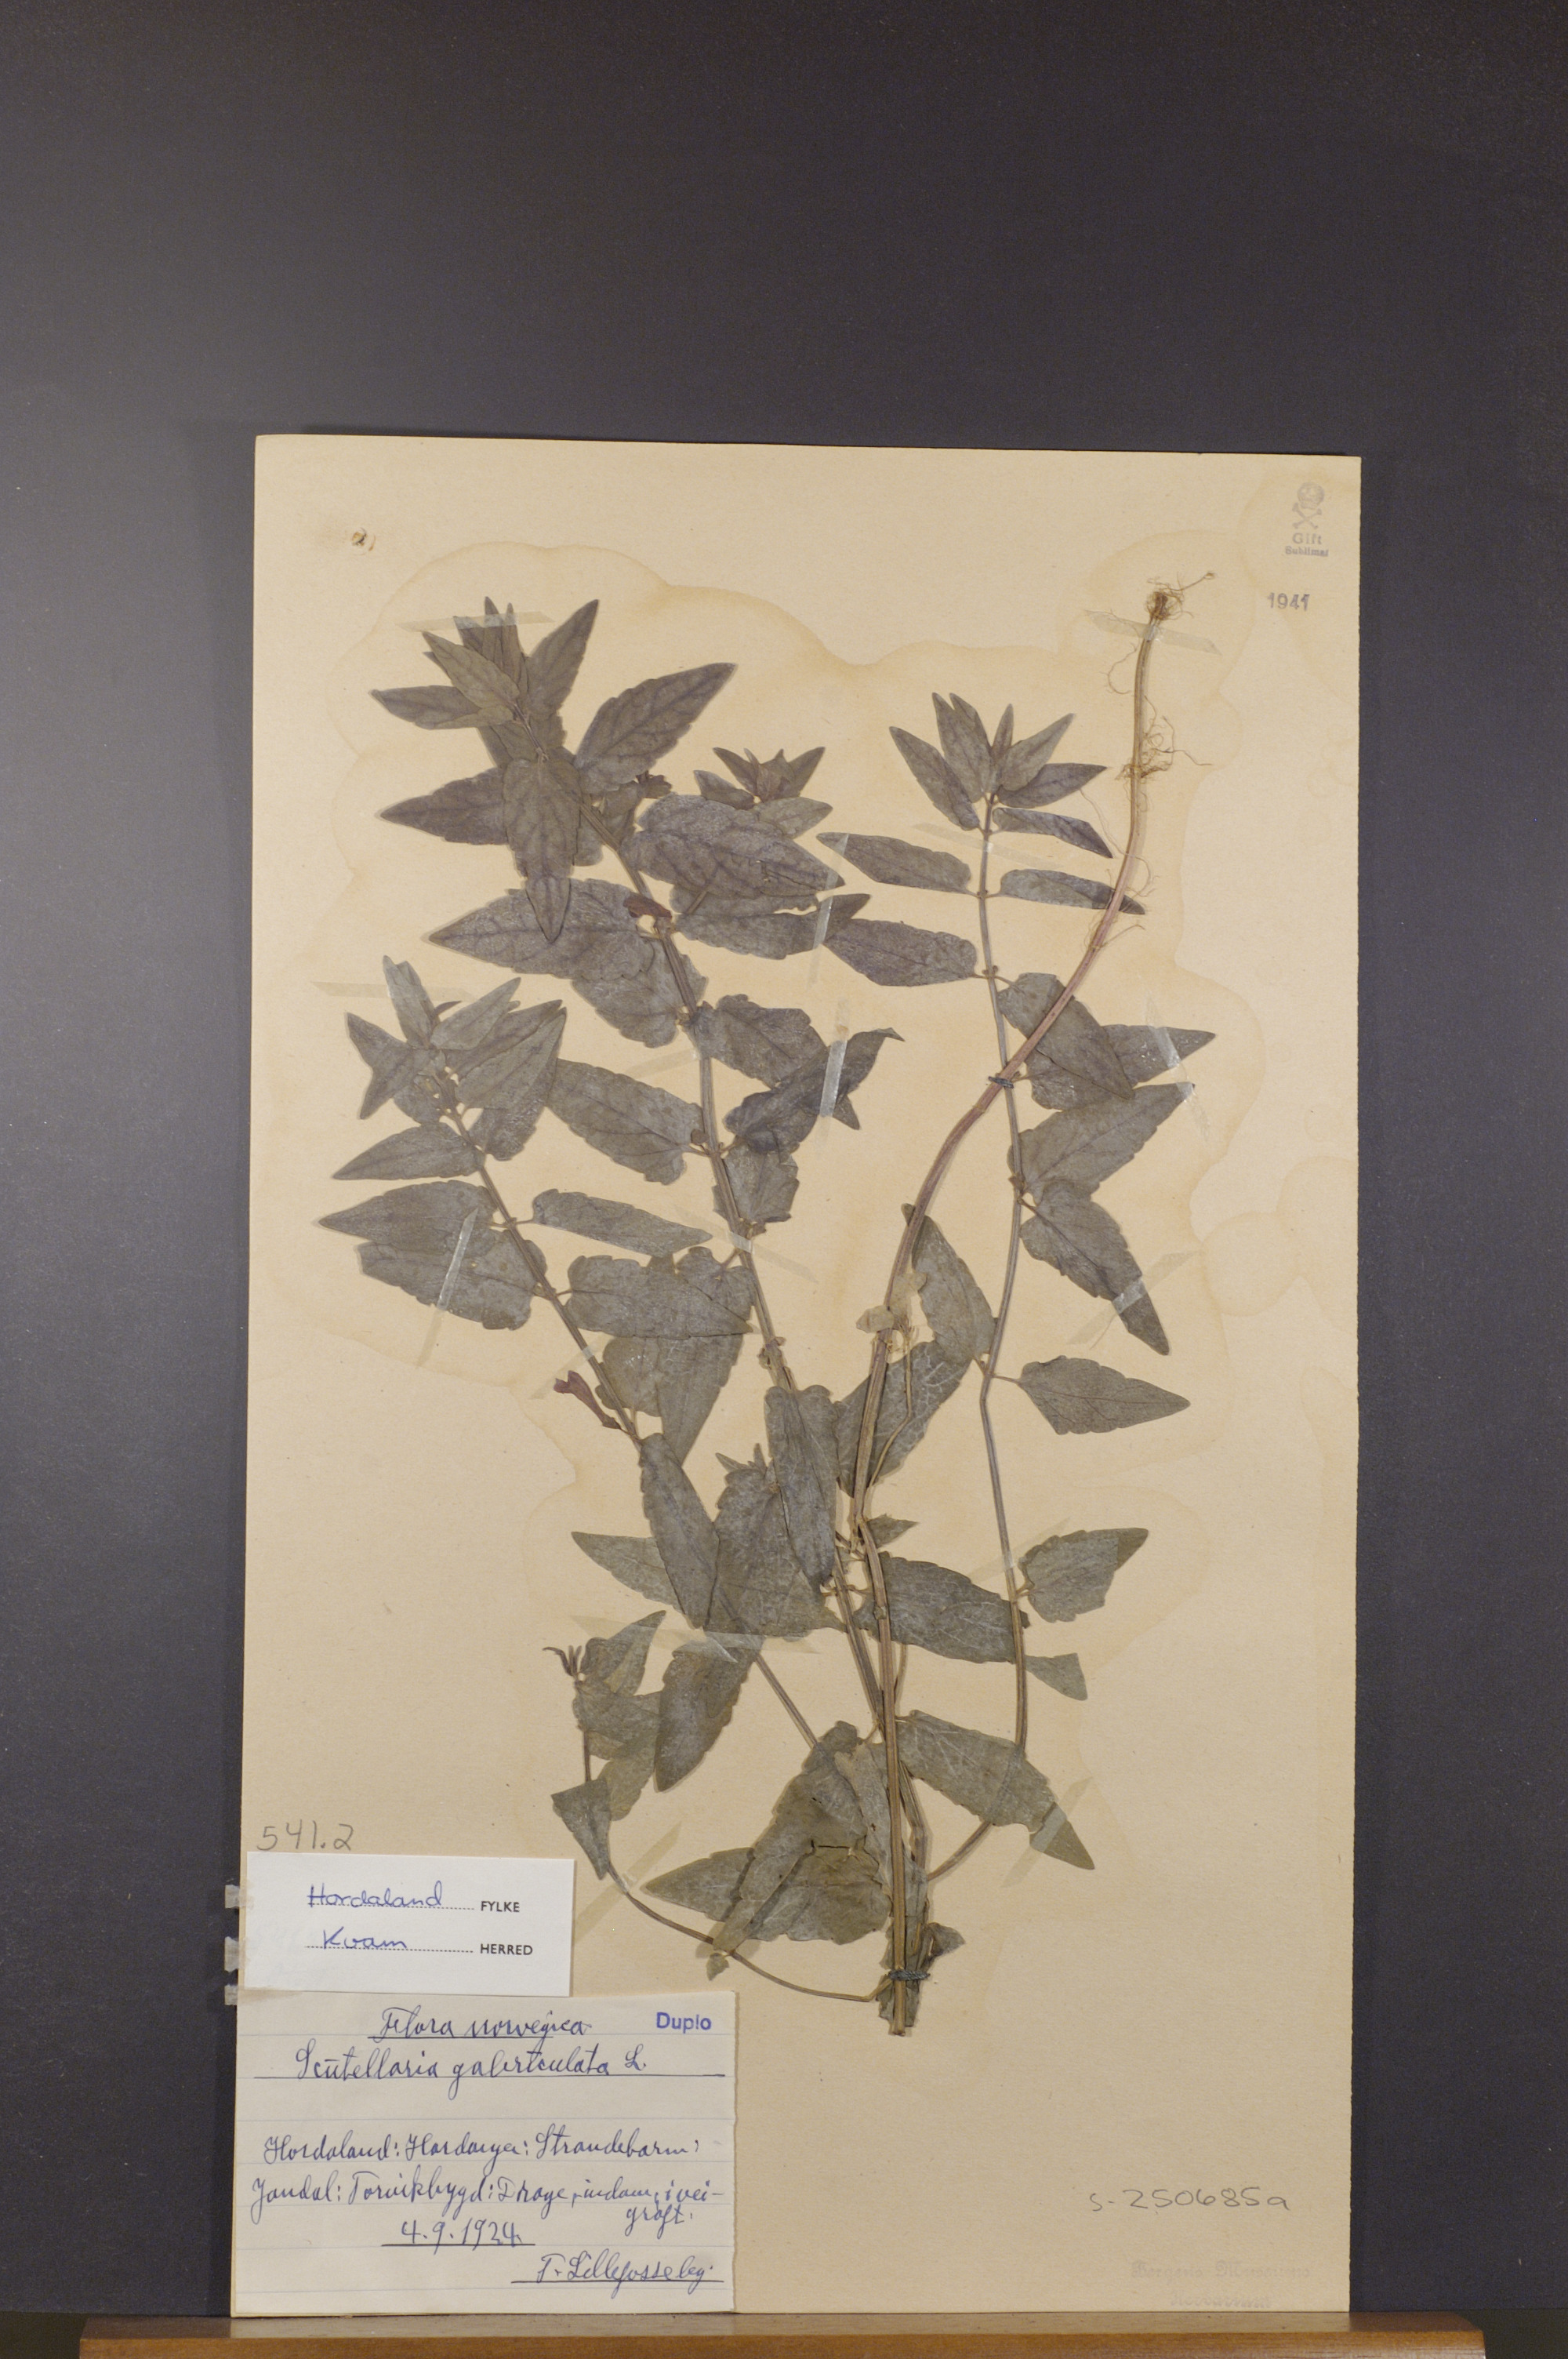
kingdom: Plantae
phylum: Tracheophyta
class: Magnoliopsida
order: Lamiales
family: Lamiaceae
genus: Scutellaria
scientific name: Scutellaria galericulata
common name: Skullcap
